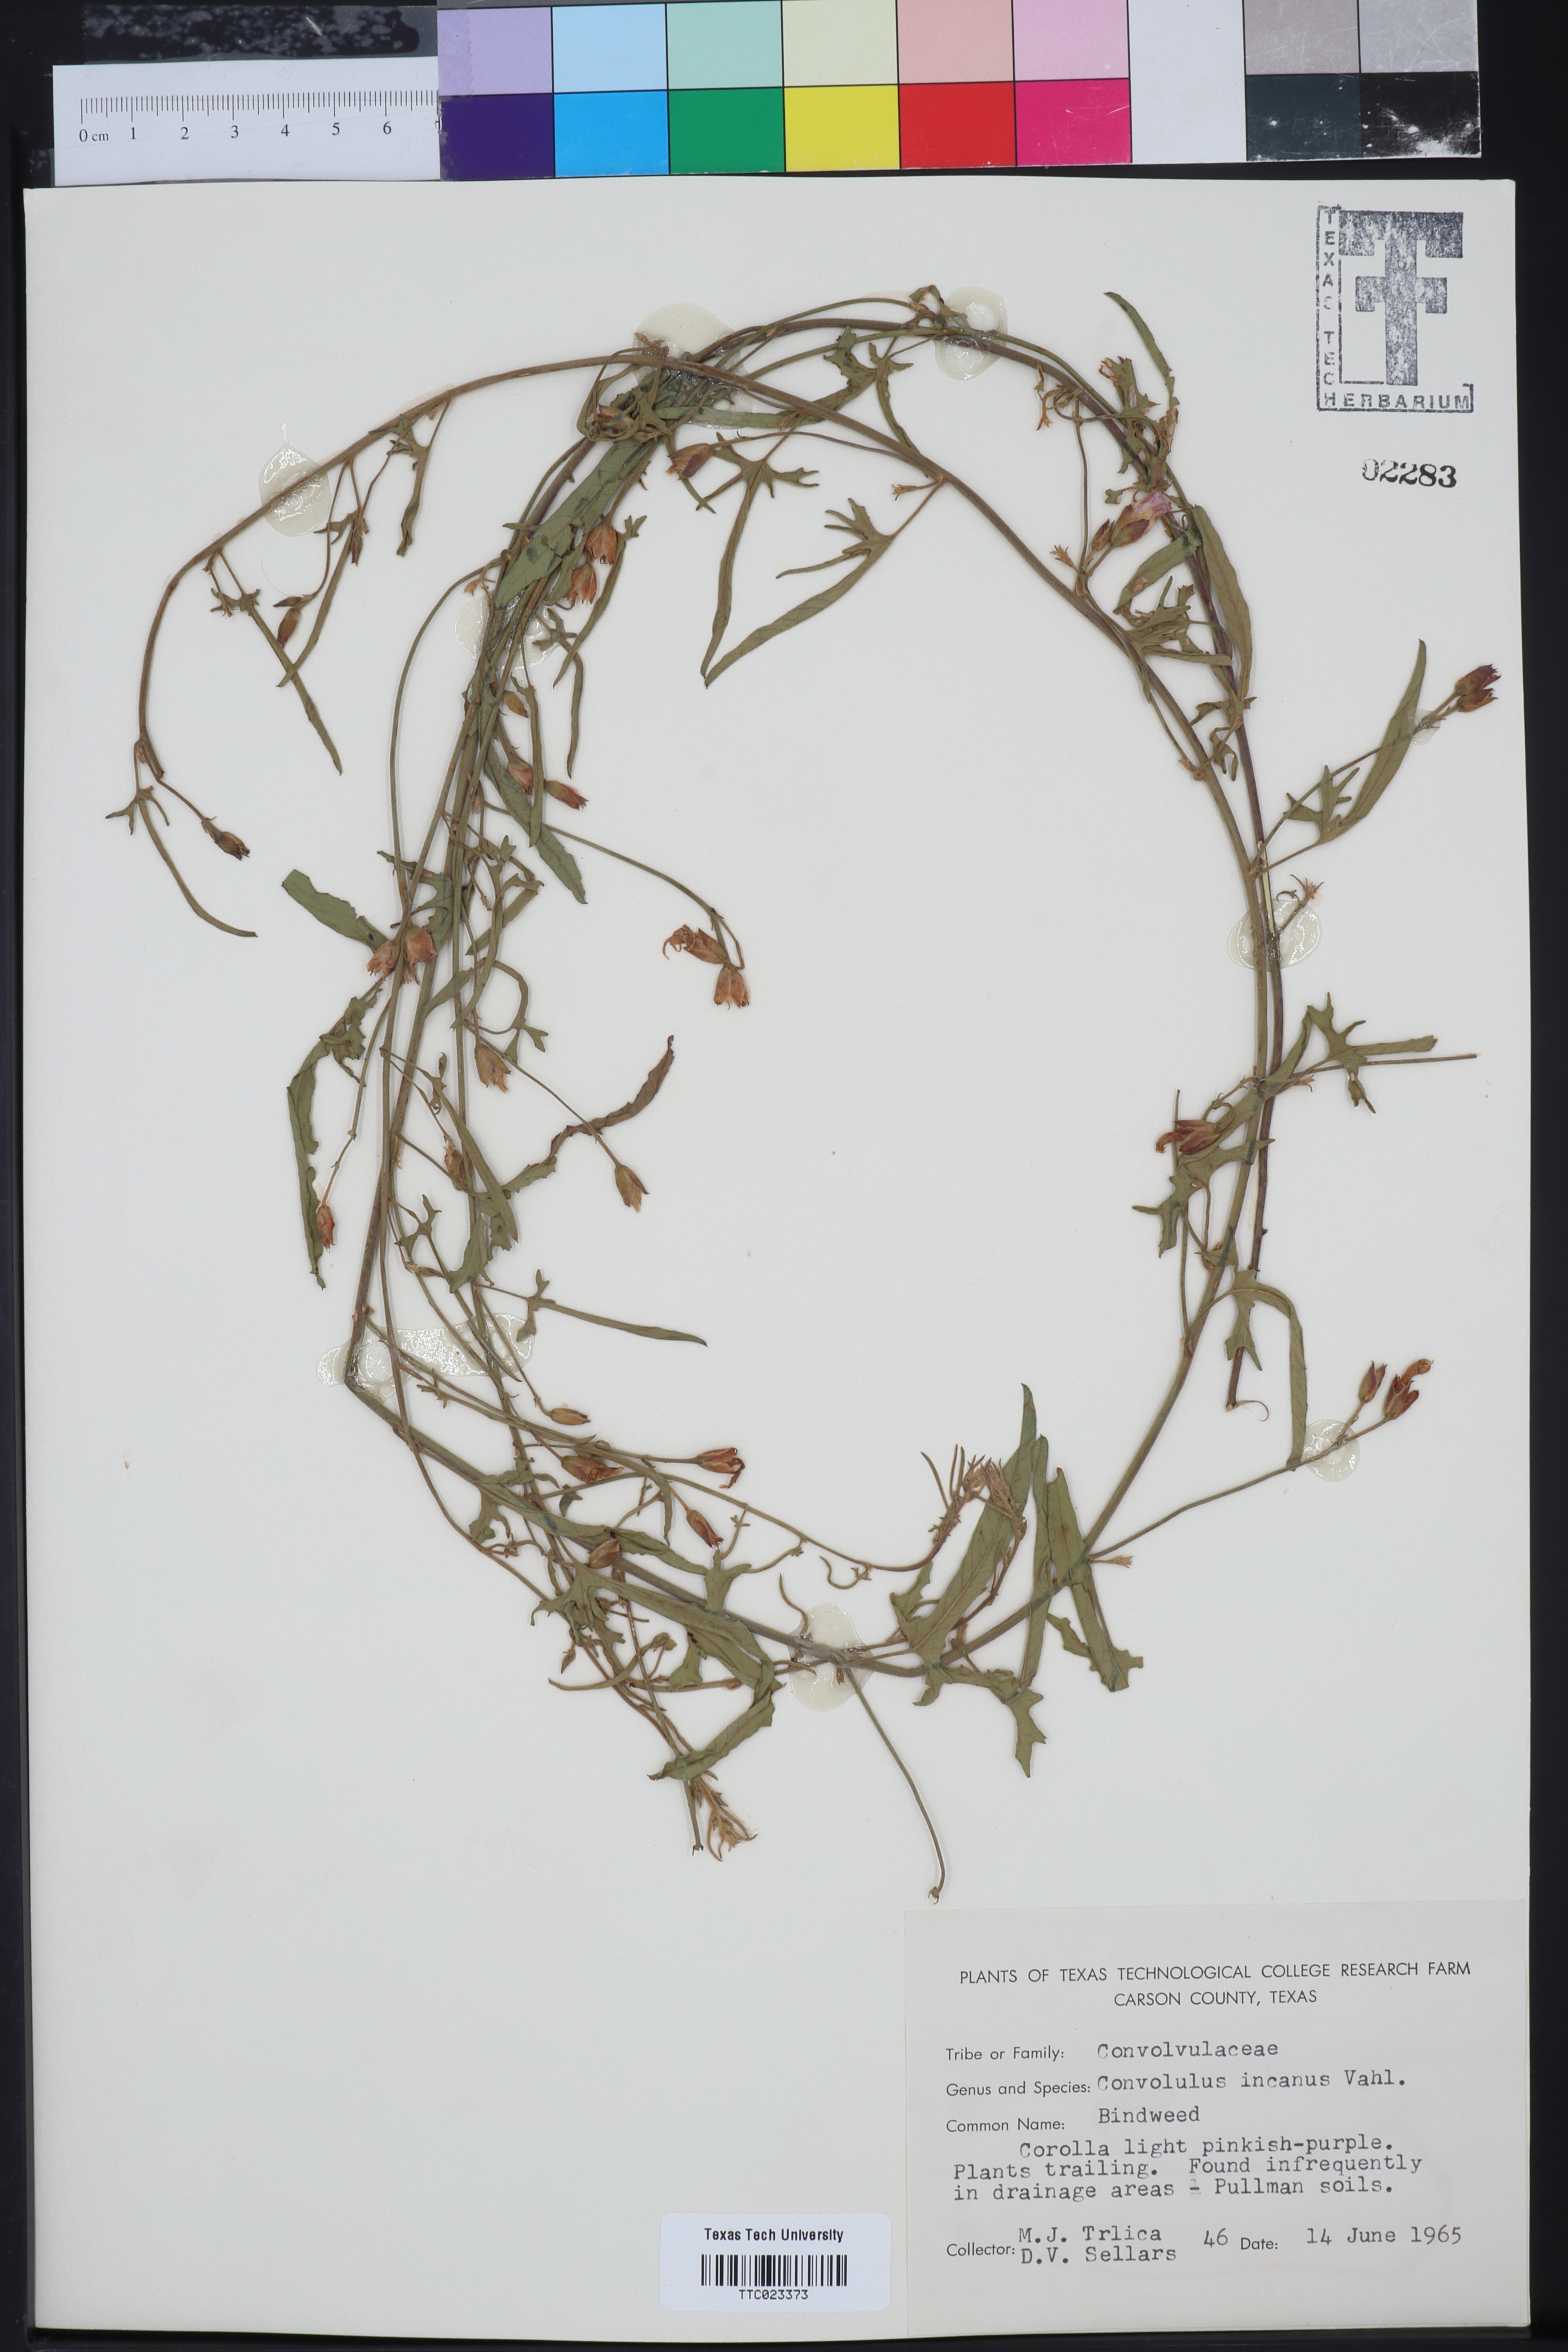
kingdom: Plantae
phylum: Tracheophyta
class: Magnoliopsida
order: Solanales
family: Convolvulaceae
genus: Convolvulus
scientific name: Convolvulus hermanniae
